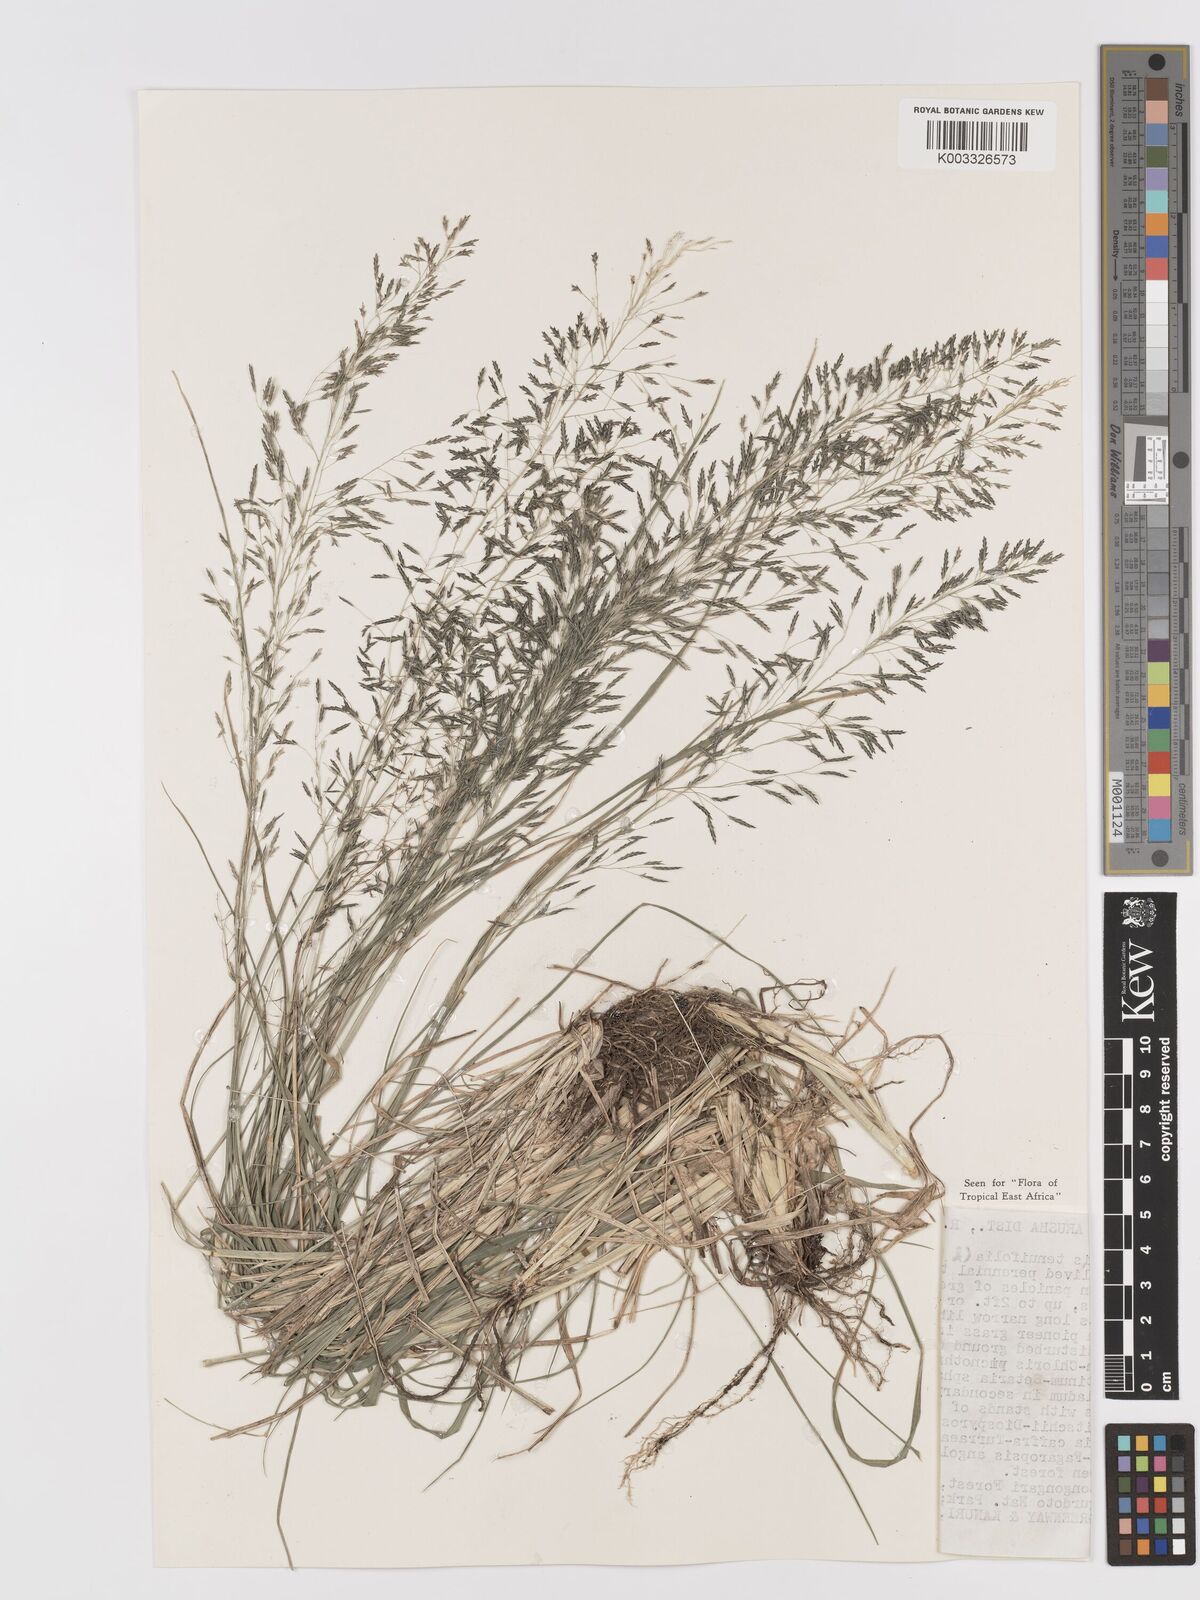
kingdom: Plantae
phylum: Tracheophyta
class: Liliopsida
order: Poales
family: Poaceae
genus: Eragrostis
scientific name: Eragrostis tenuifolia
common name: Elastic grass
